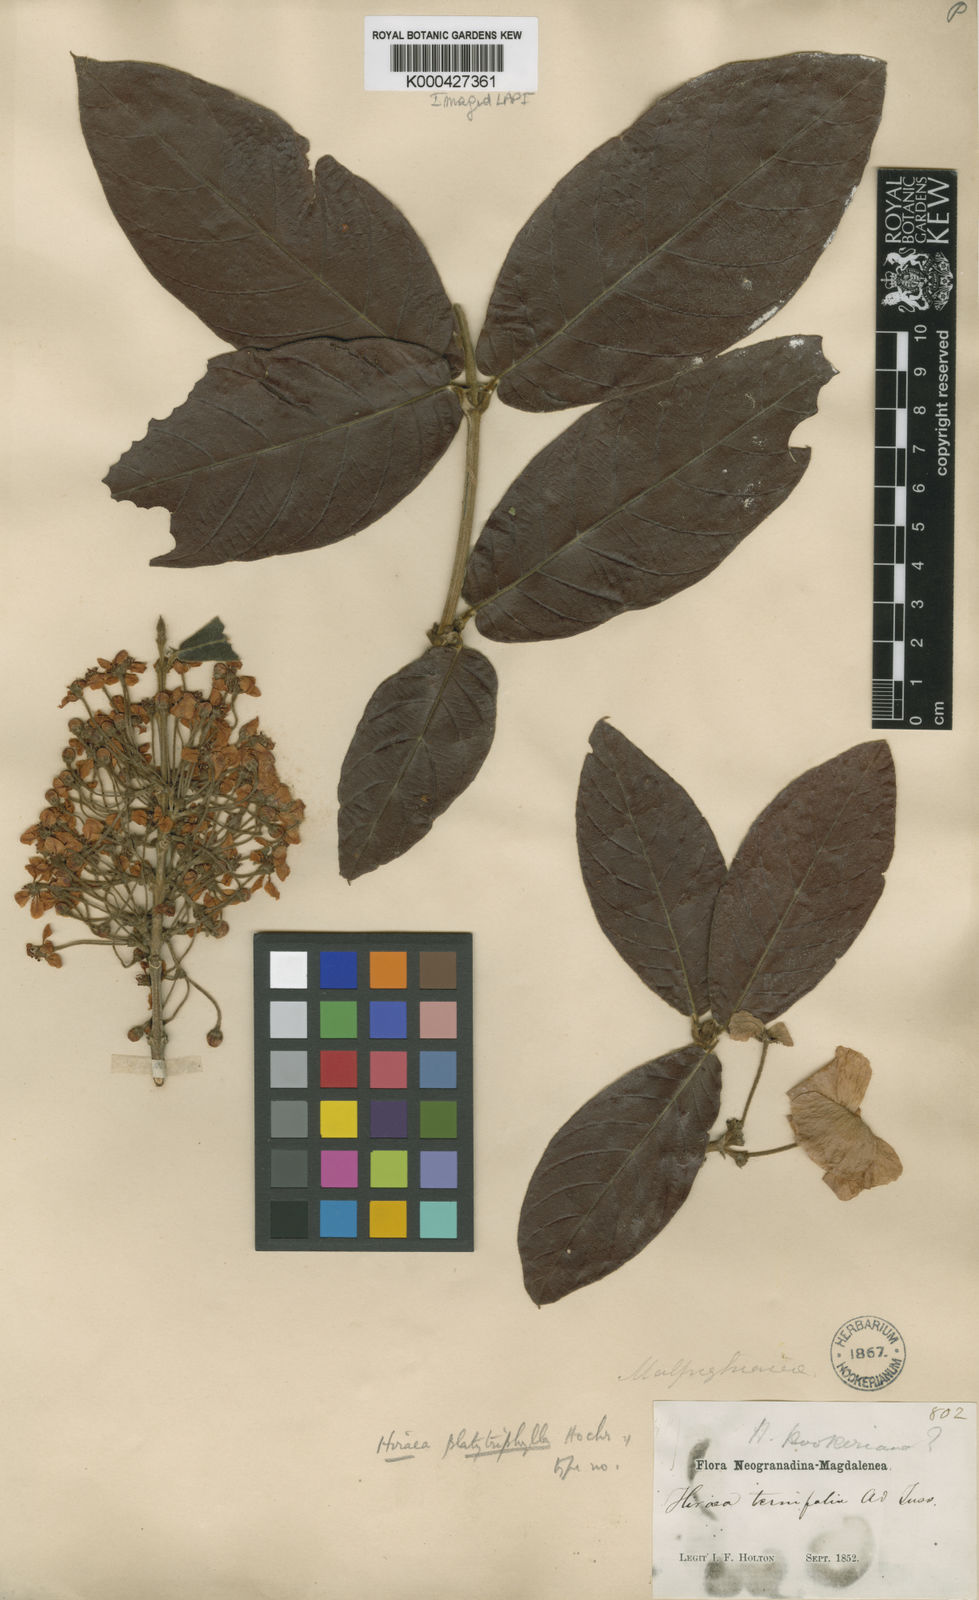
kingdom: Plantae
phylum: Tracheophyta
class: Magnoliopsida
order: Malpighiales
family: Malpighiaceae
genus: Hiraea
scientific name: Hiraea ternifolia
